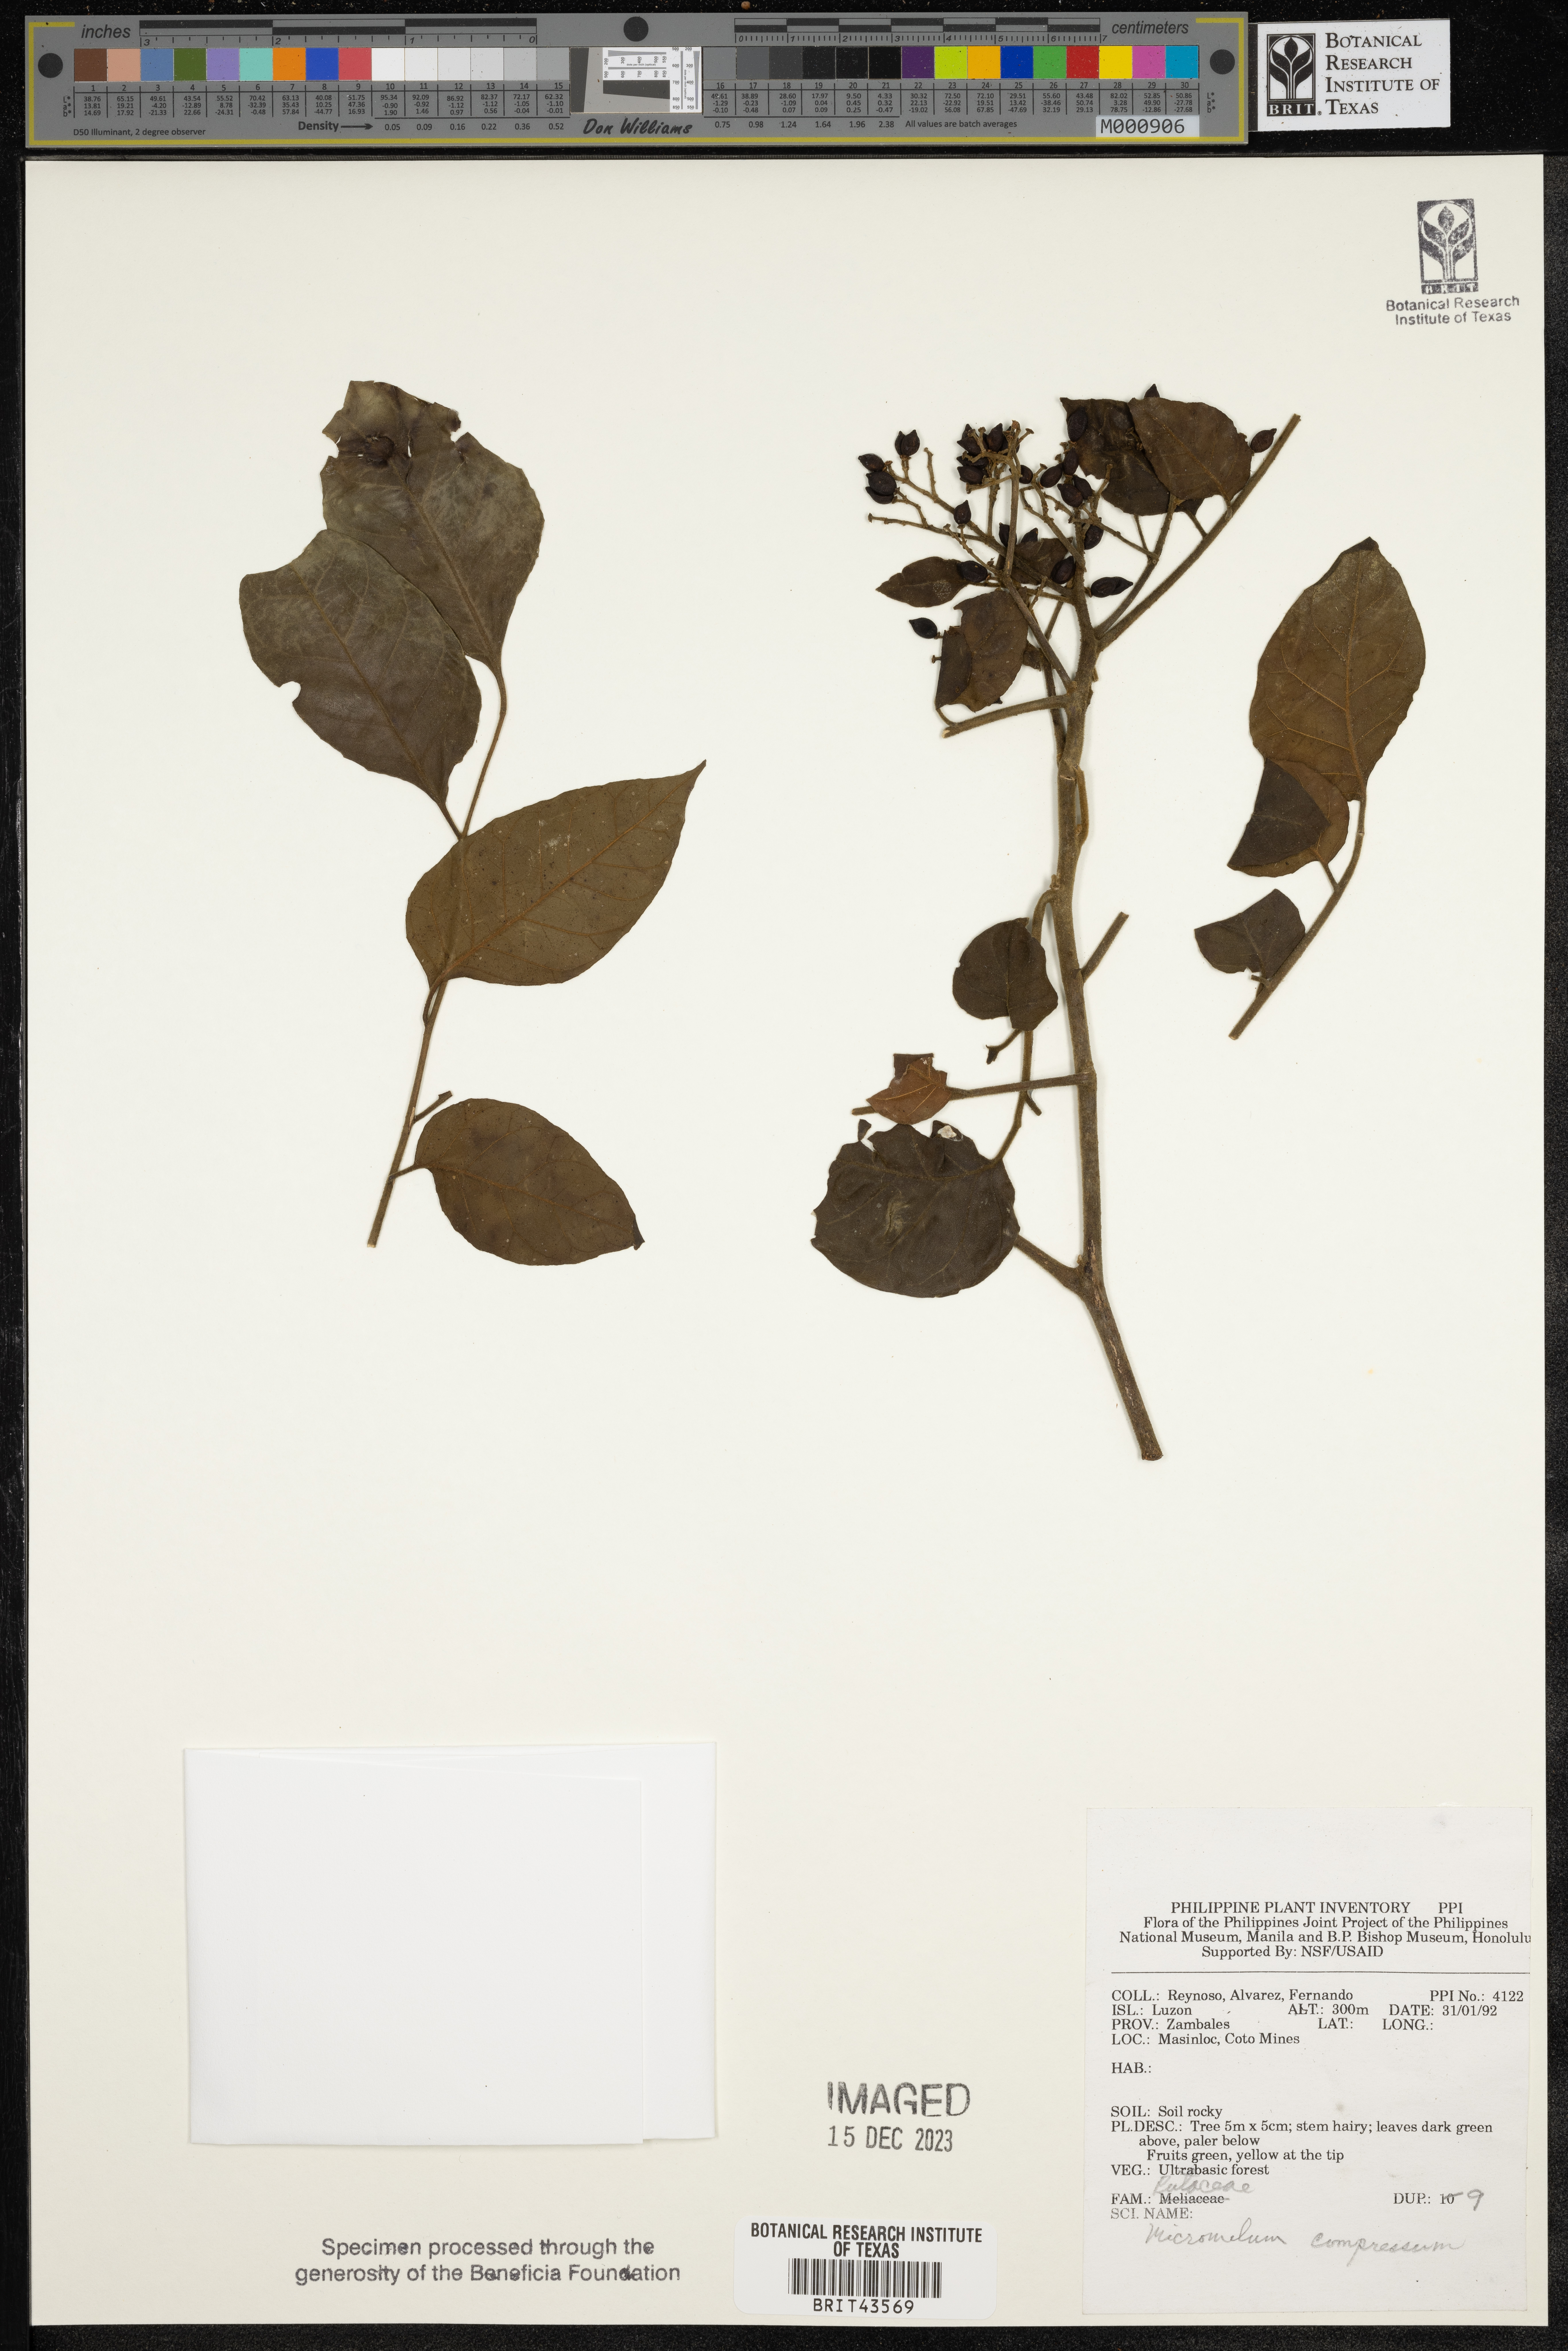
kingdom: Plantae
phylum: Tracheophyta
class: Magnoliopsida
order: Sapindales
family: Rutaceae
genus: Micromelum
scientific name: Micromelum compressum
